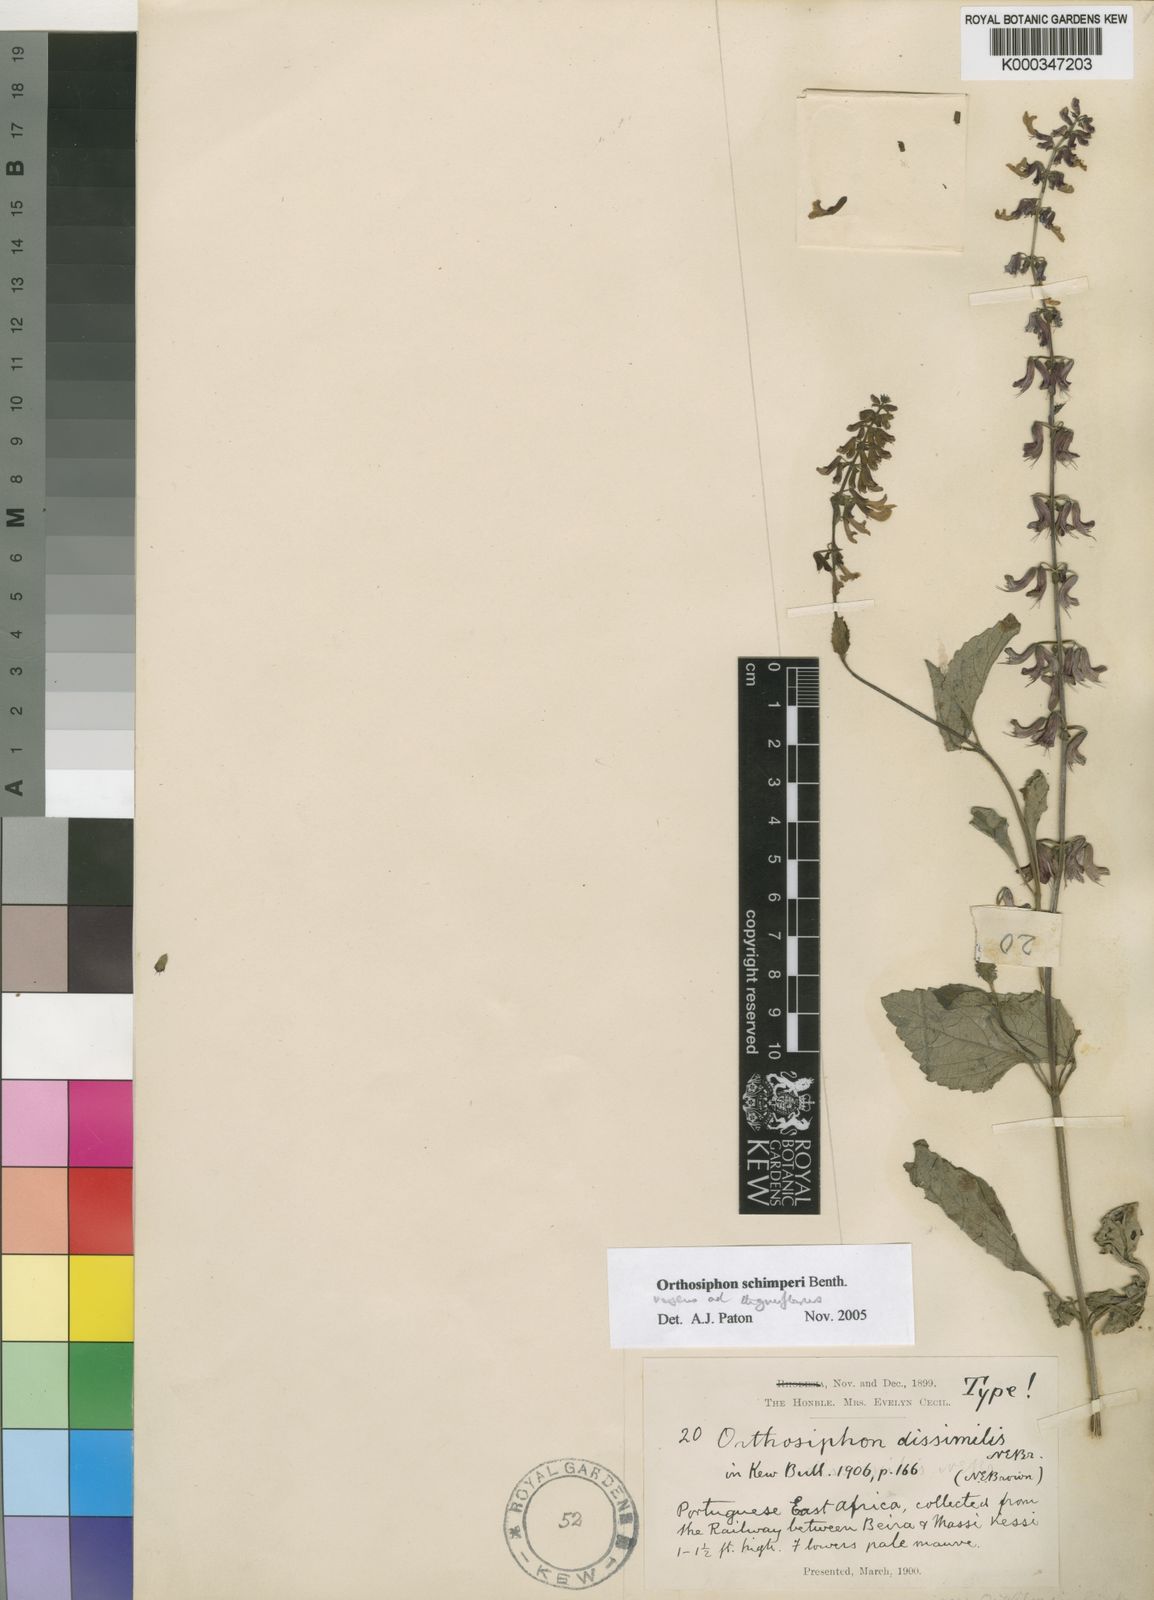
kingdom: Plantae
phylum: Tracheophyta
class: Magnoliopsida
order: Lamiales
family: Lamiaceae
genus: Orthosiphon
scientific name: Orthosiphon schimperi
